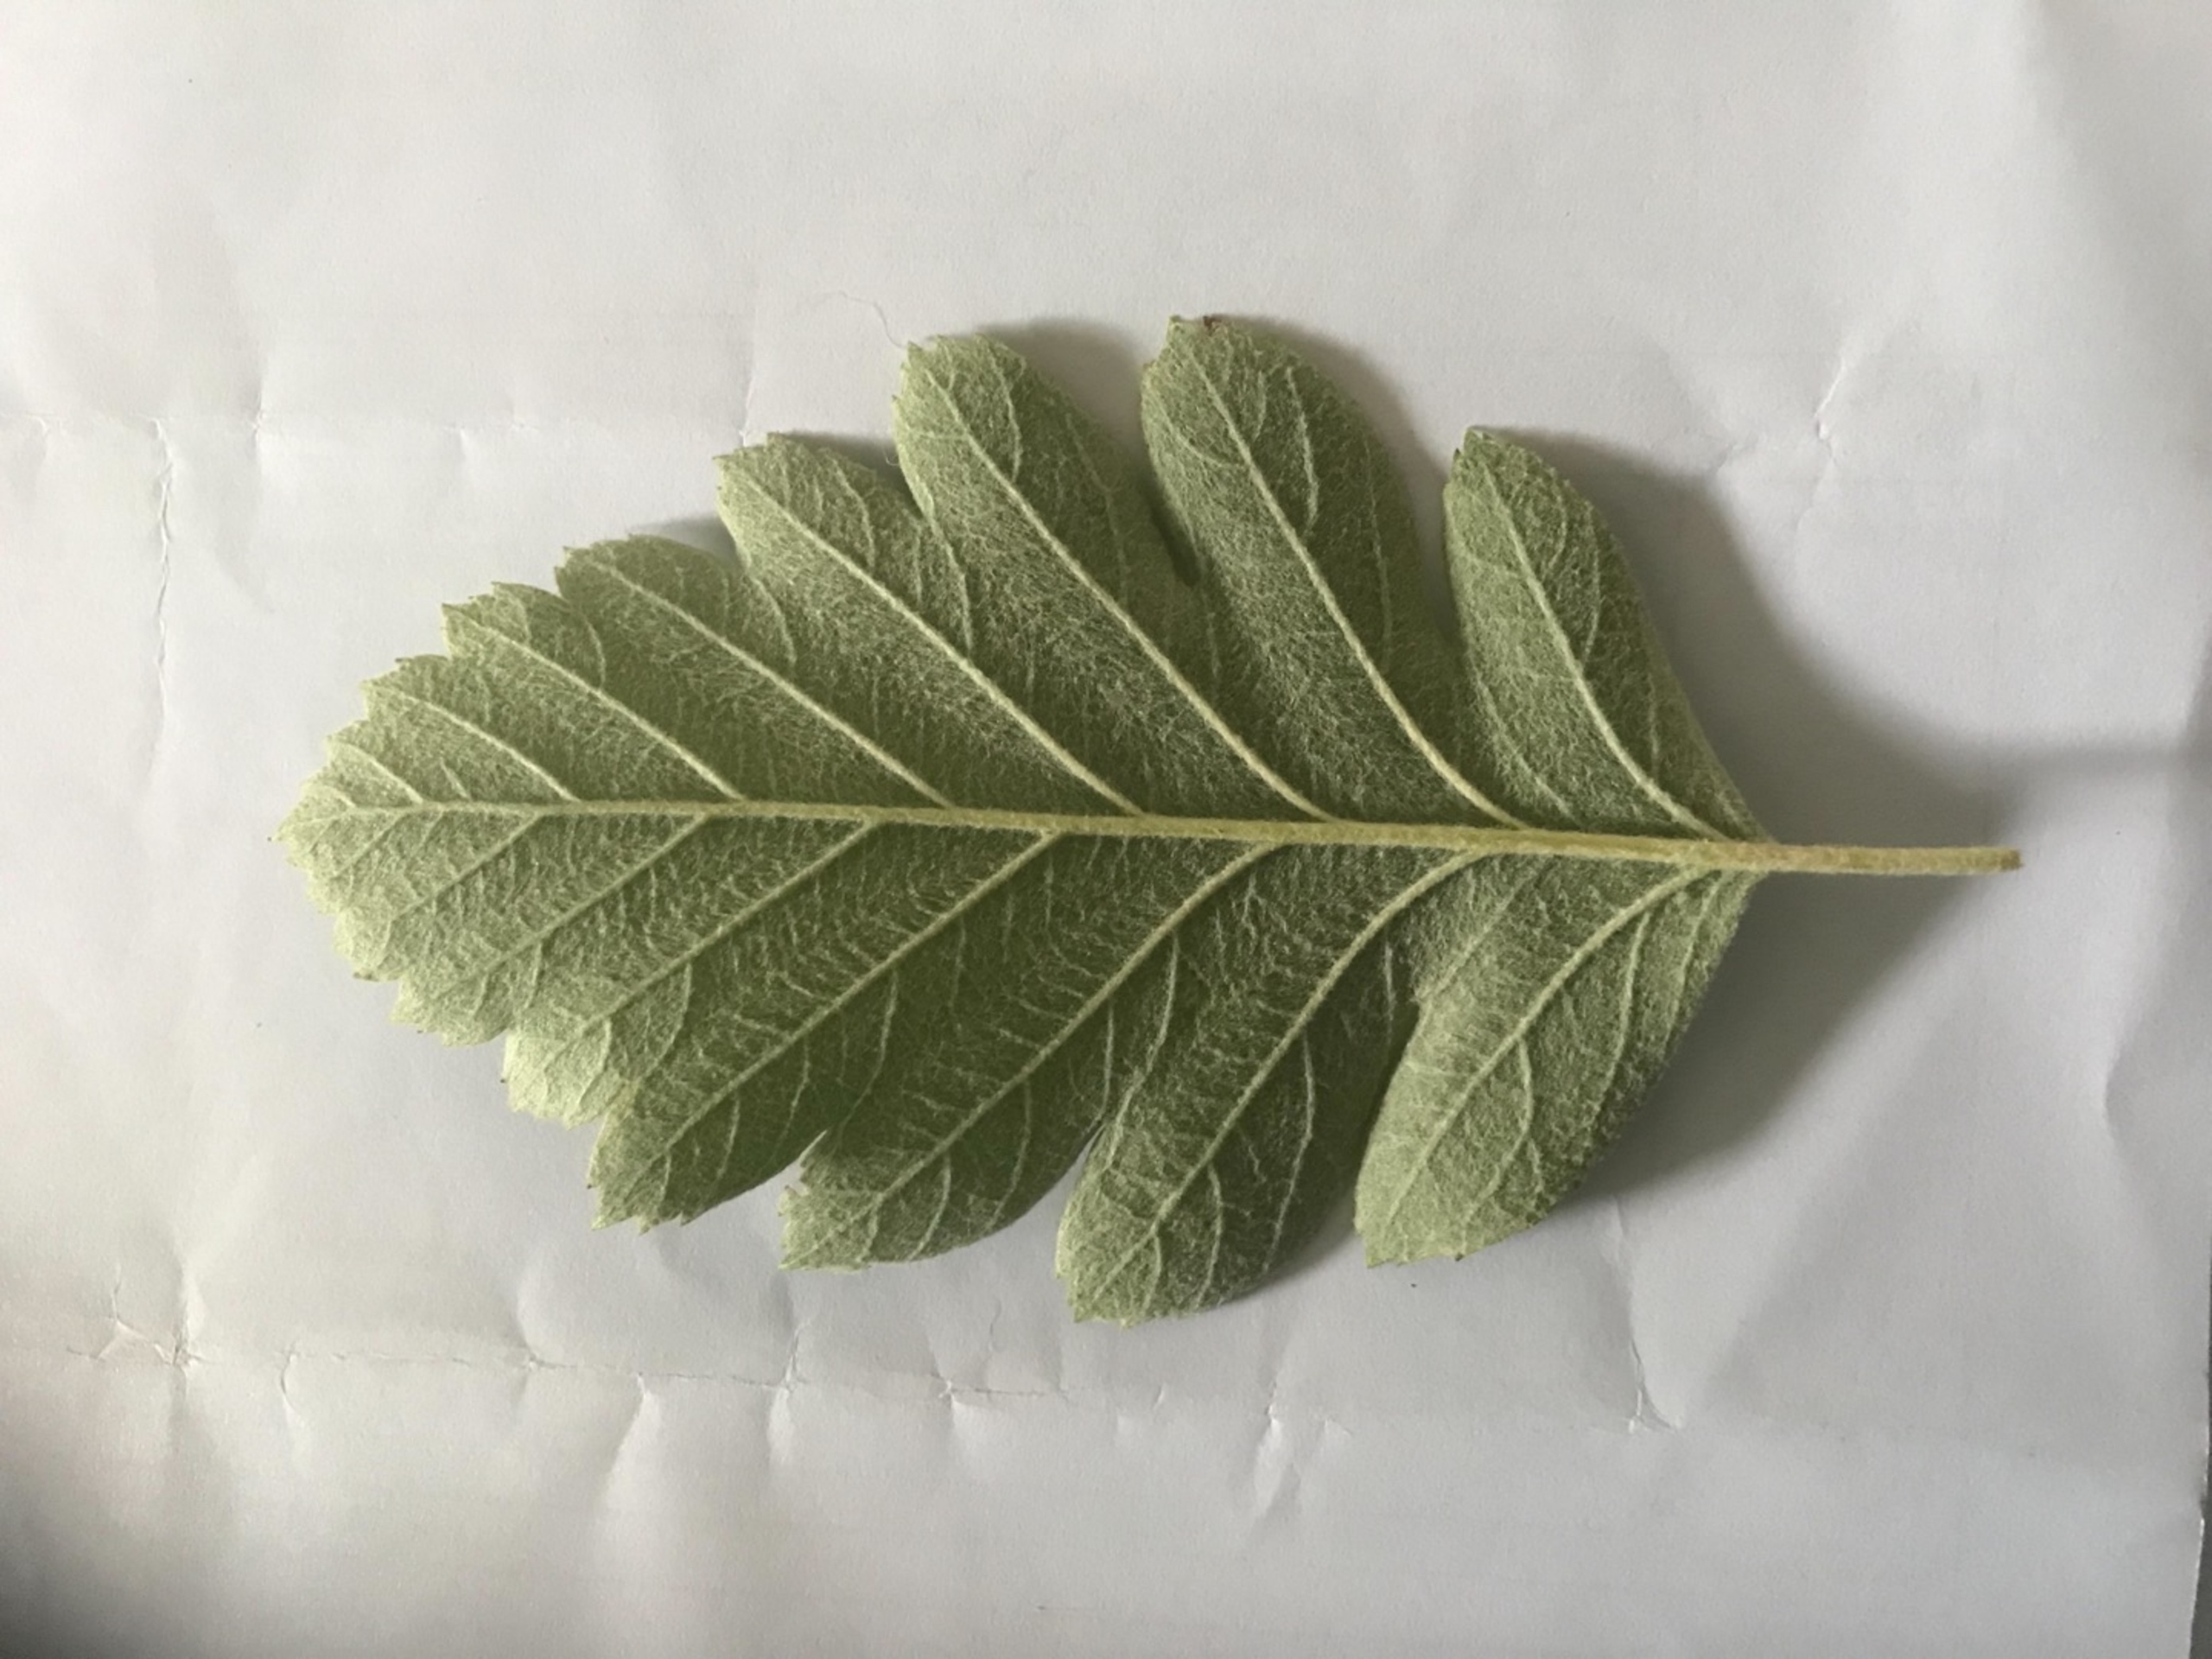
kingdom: Plantae
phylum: Tracheophyta
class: Magnoliopsida
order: Rosales
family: Rosaceae
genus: Scandosorbus
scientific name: Scandosorbus intermedia
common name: Selje-røn
